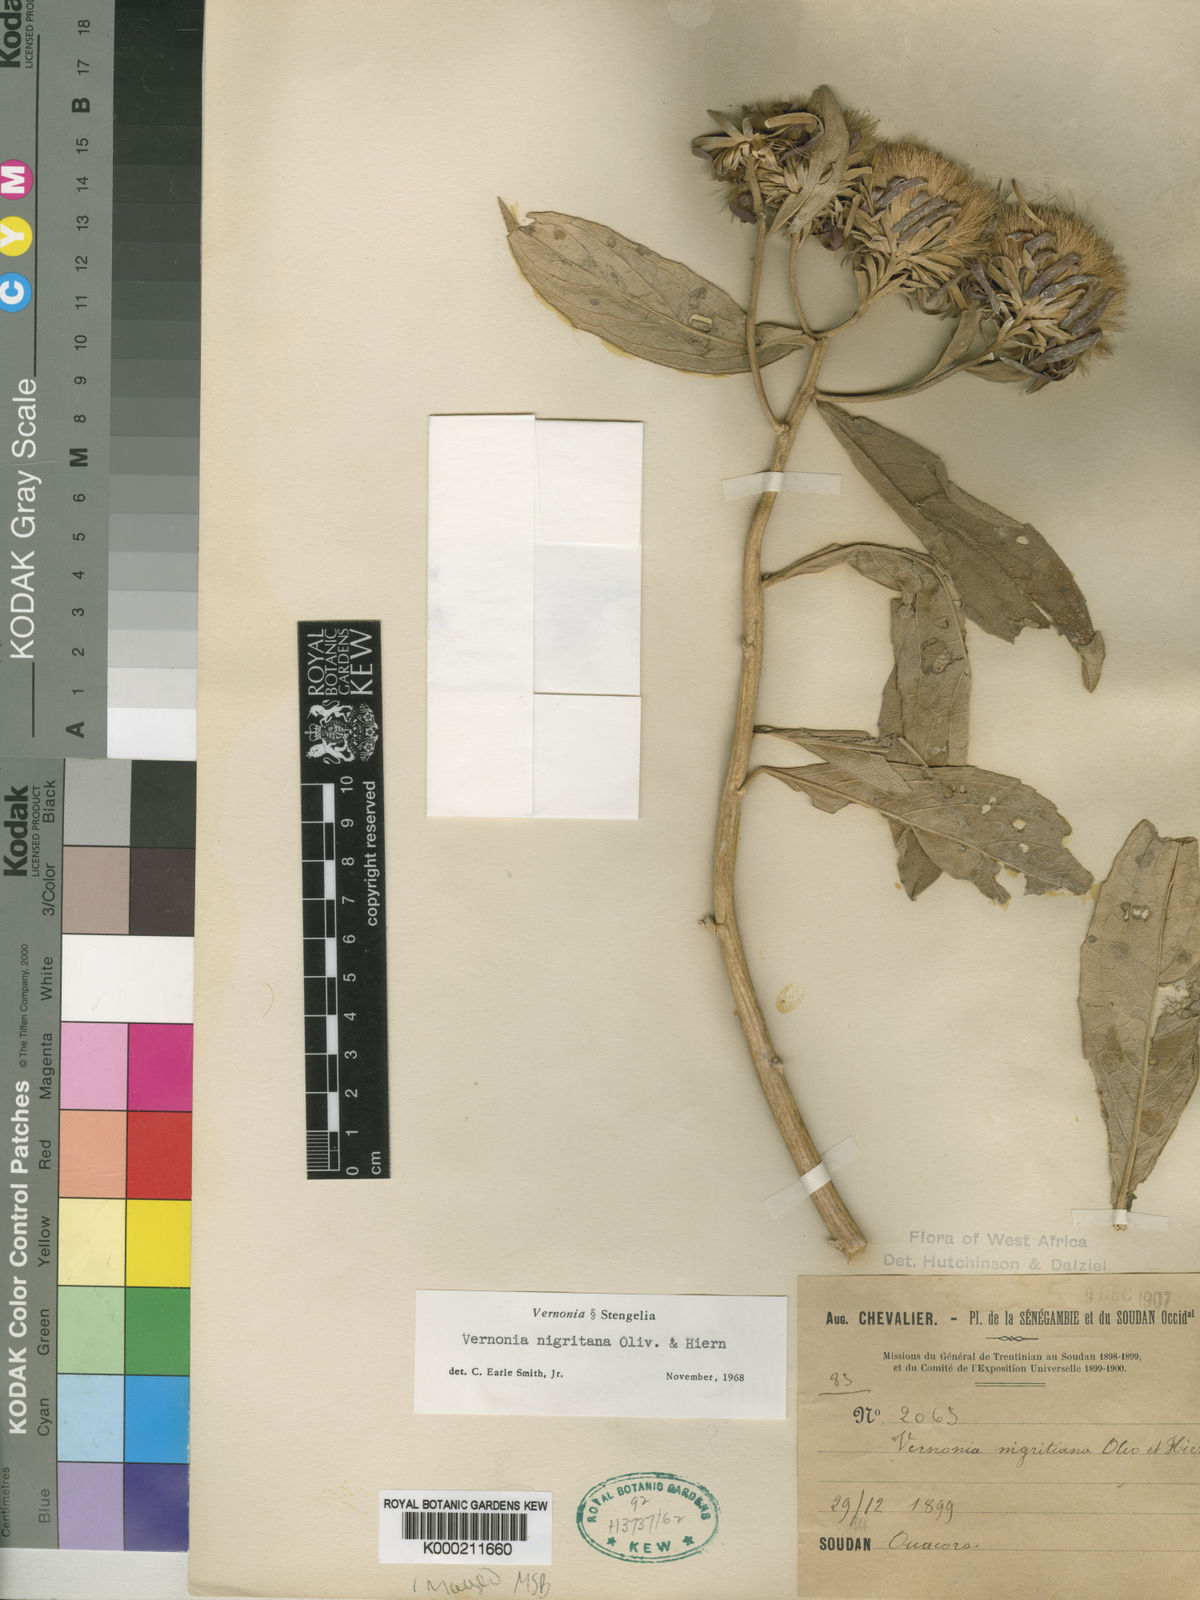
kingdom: Plantae
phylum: Tracheophyta
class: Magnoliopsida
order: Asterales
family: Asteraceae
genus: Linzia
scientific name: Linzia nigritiana
